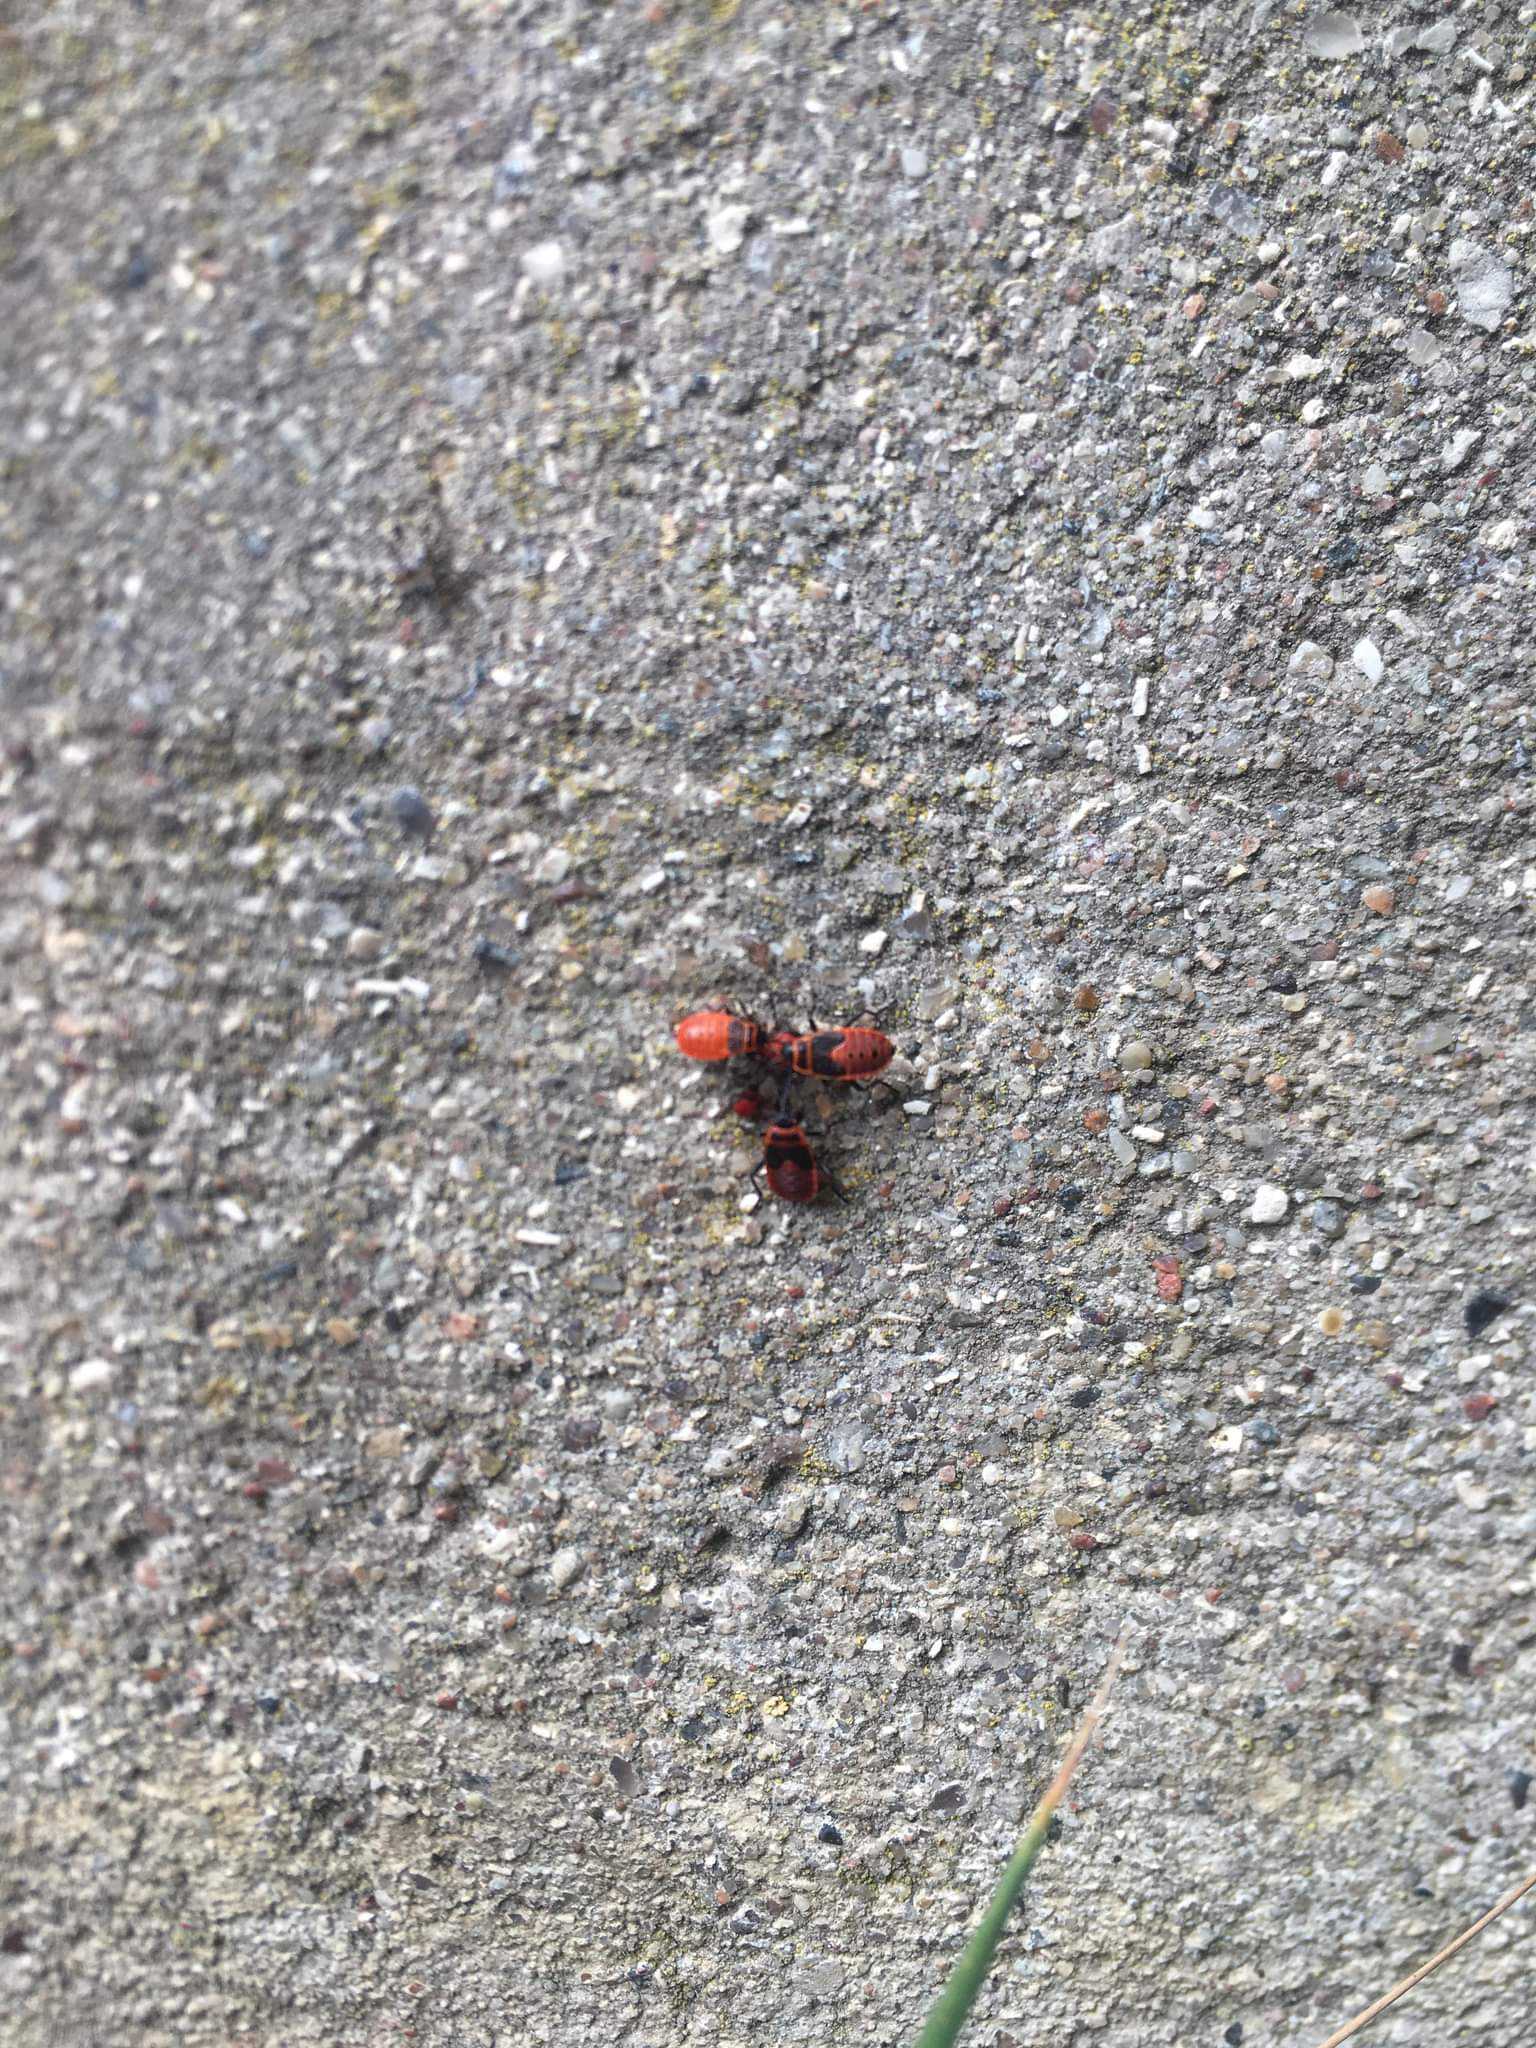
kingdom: Animalia
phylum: Arthropoda
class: Insecta
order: Hemiptera
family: Pyrrhocoridae
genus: Pyrrhocoris
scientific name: Pyrrhocoris apterus
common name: Ildtæge
